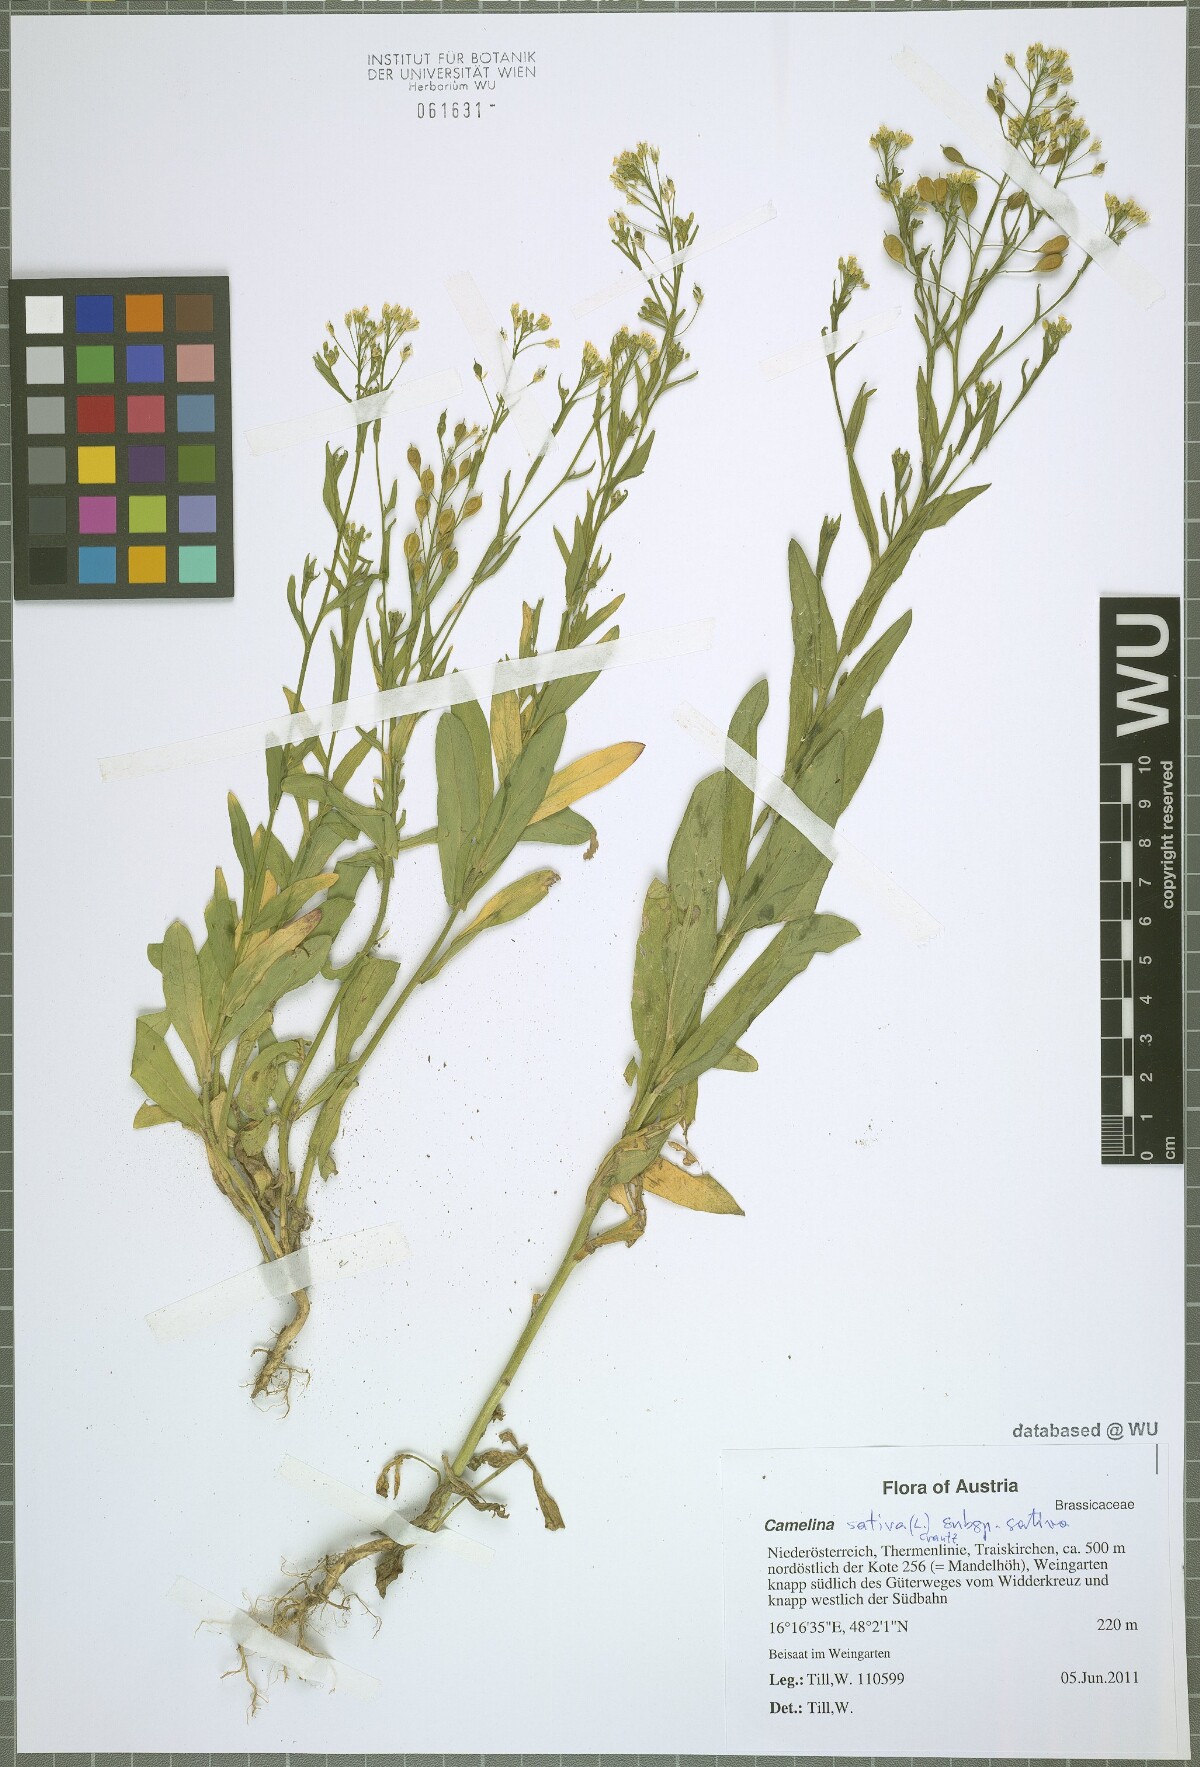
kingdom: Plantae
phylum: Tracheophyta
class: Magnoliopsida
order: Brassicales
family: Brassicaceae
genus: Camelina
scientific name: Camelina sativa
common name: Gold-of-pleasure
